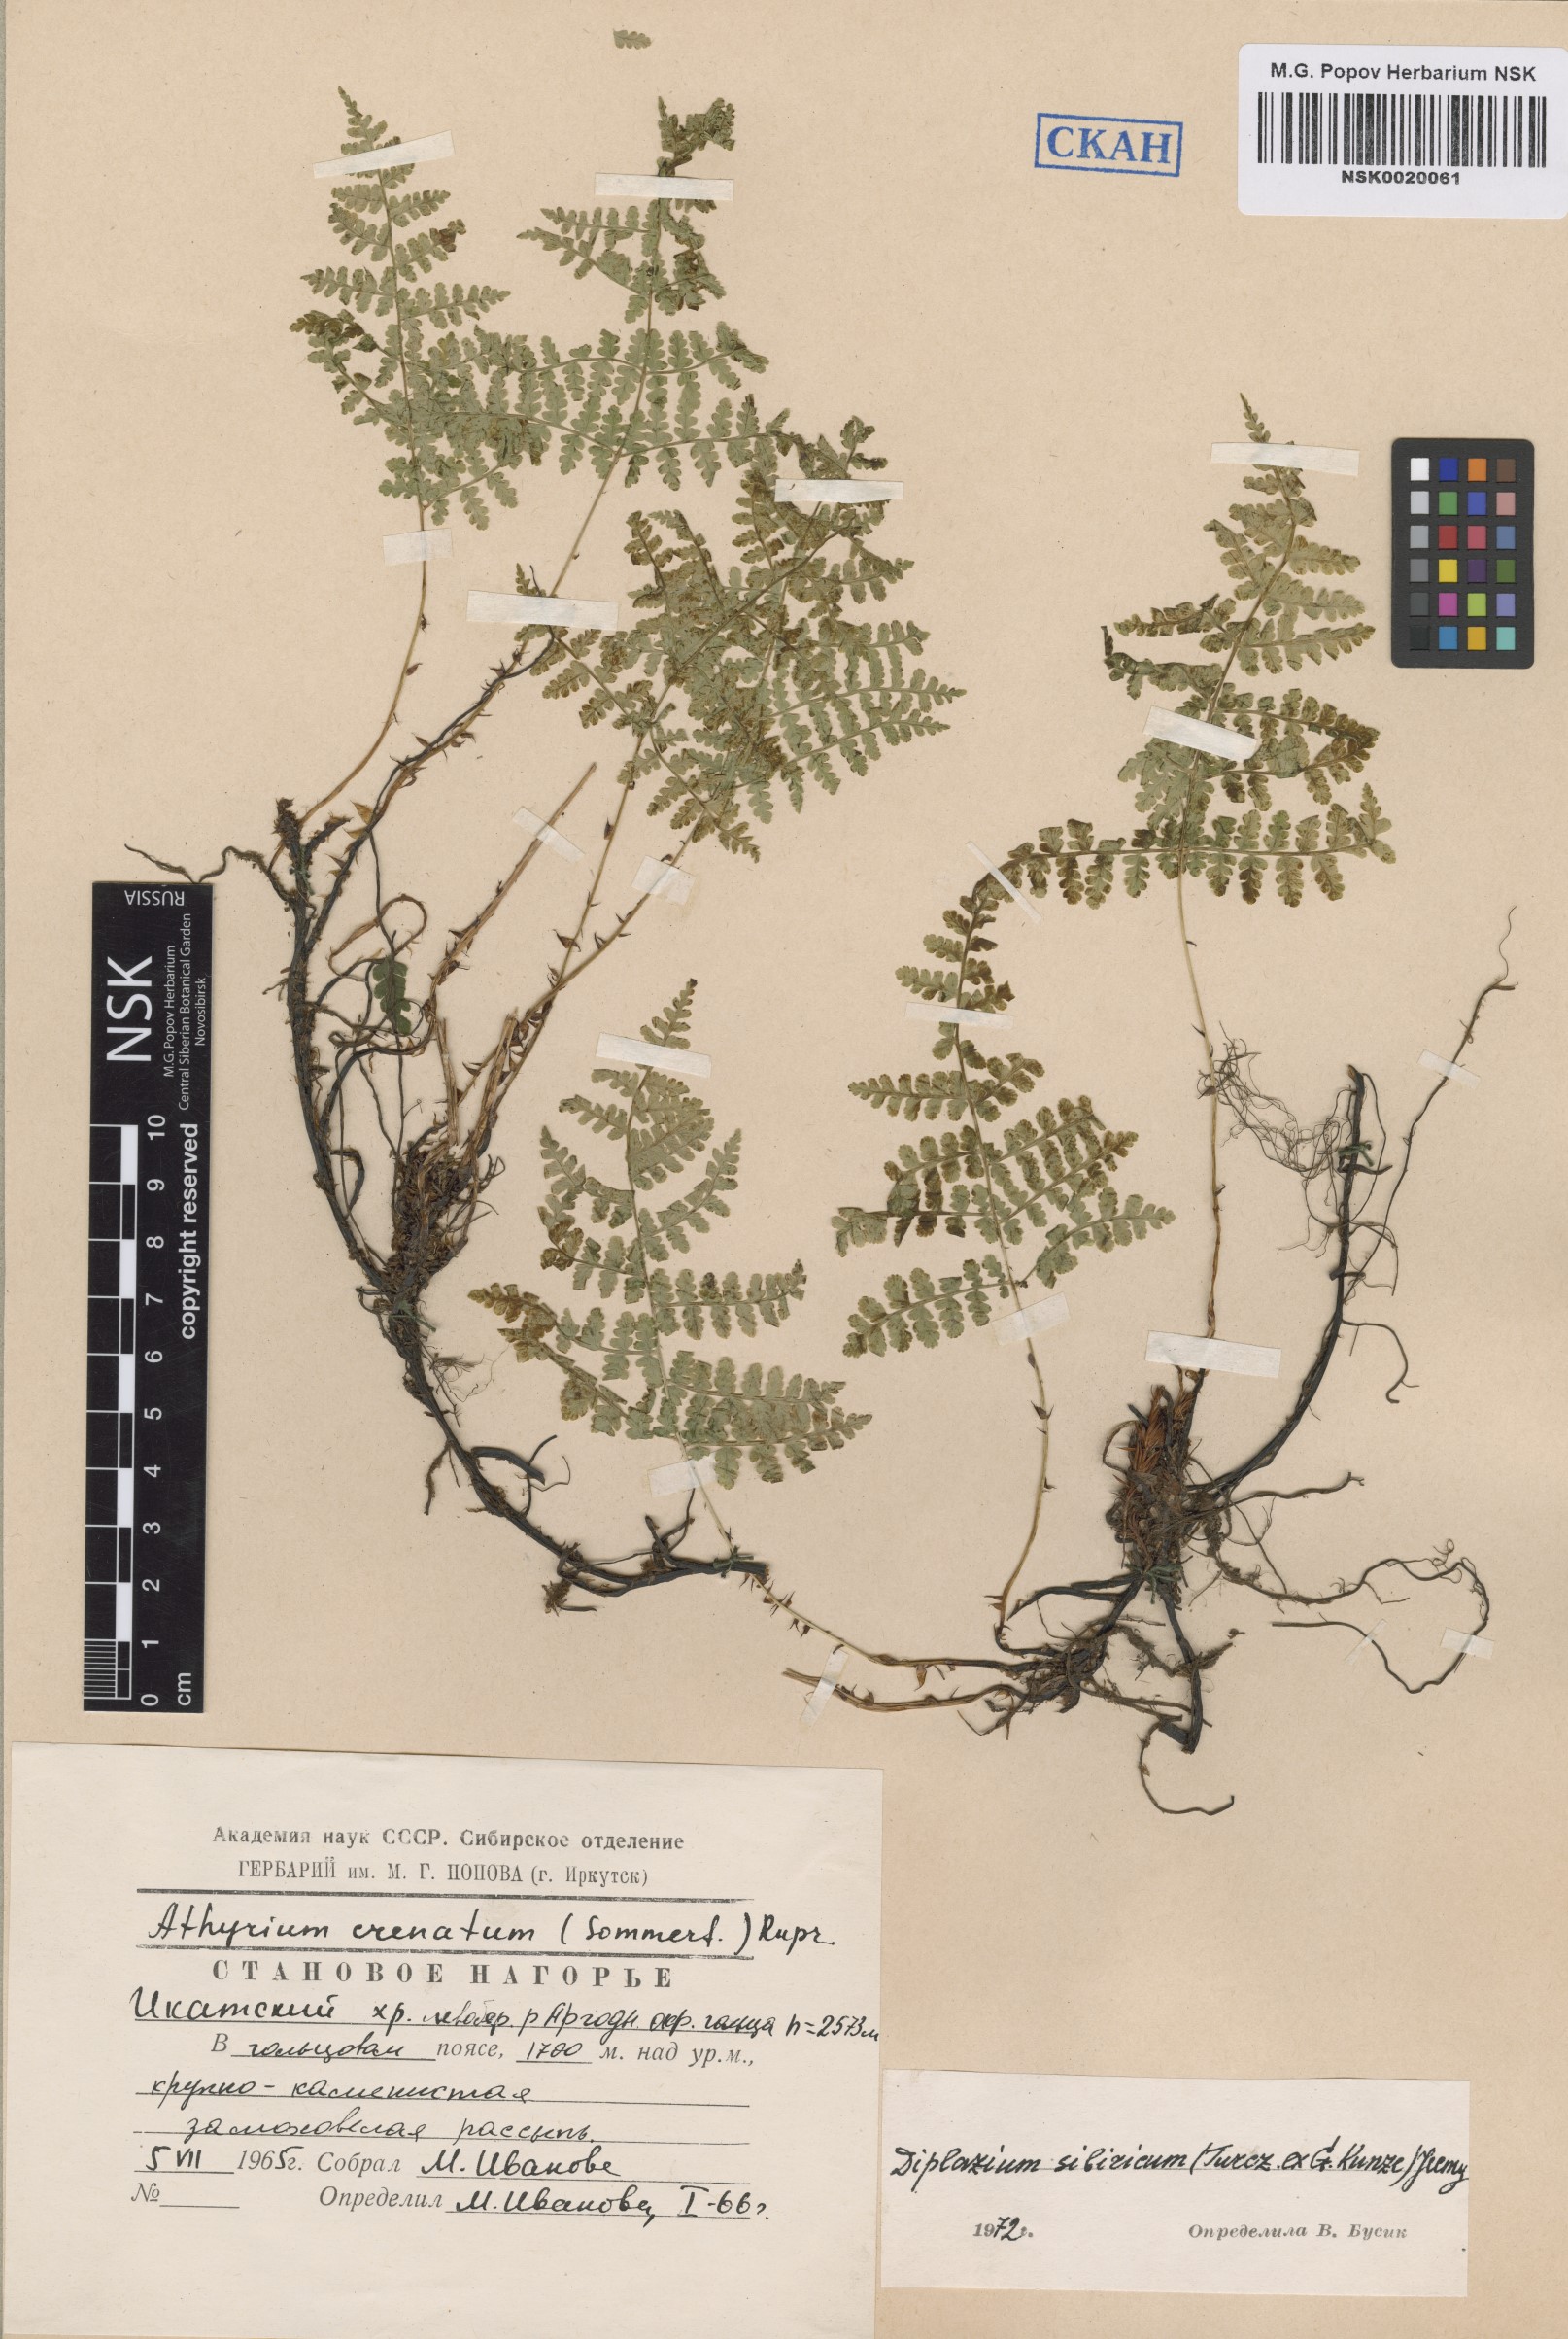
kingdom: Plantae
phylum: Tracheophyta
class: Polypodiopsida
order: Polypodiales
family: Athyriaceae
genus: Diplazium
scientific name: Diplazium sibiricum
